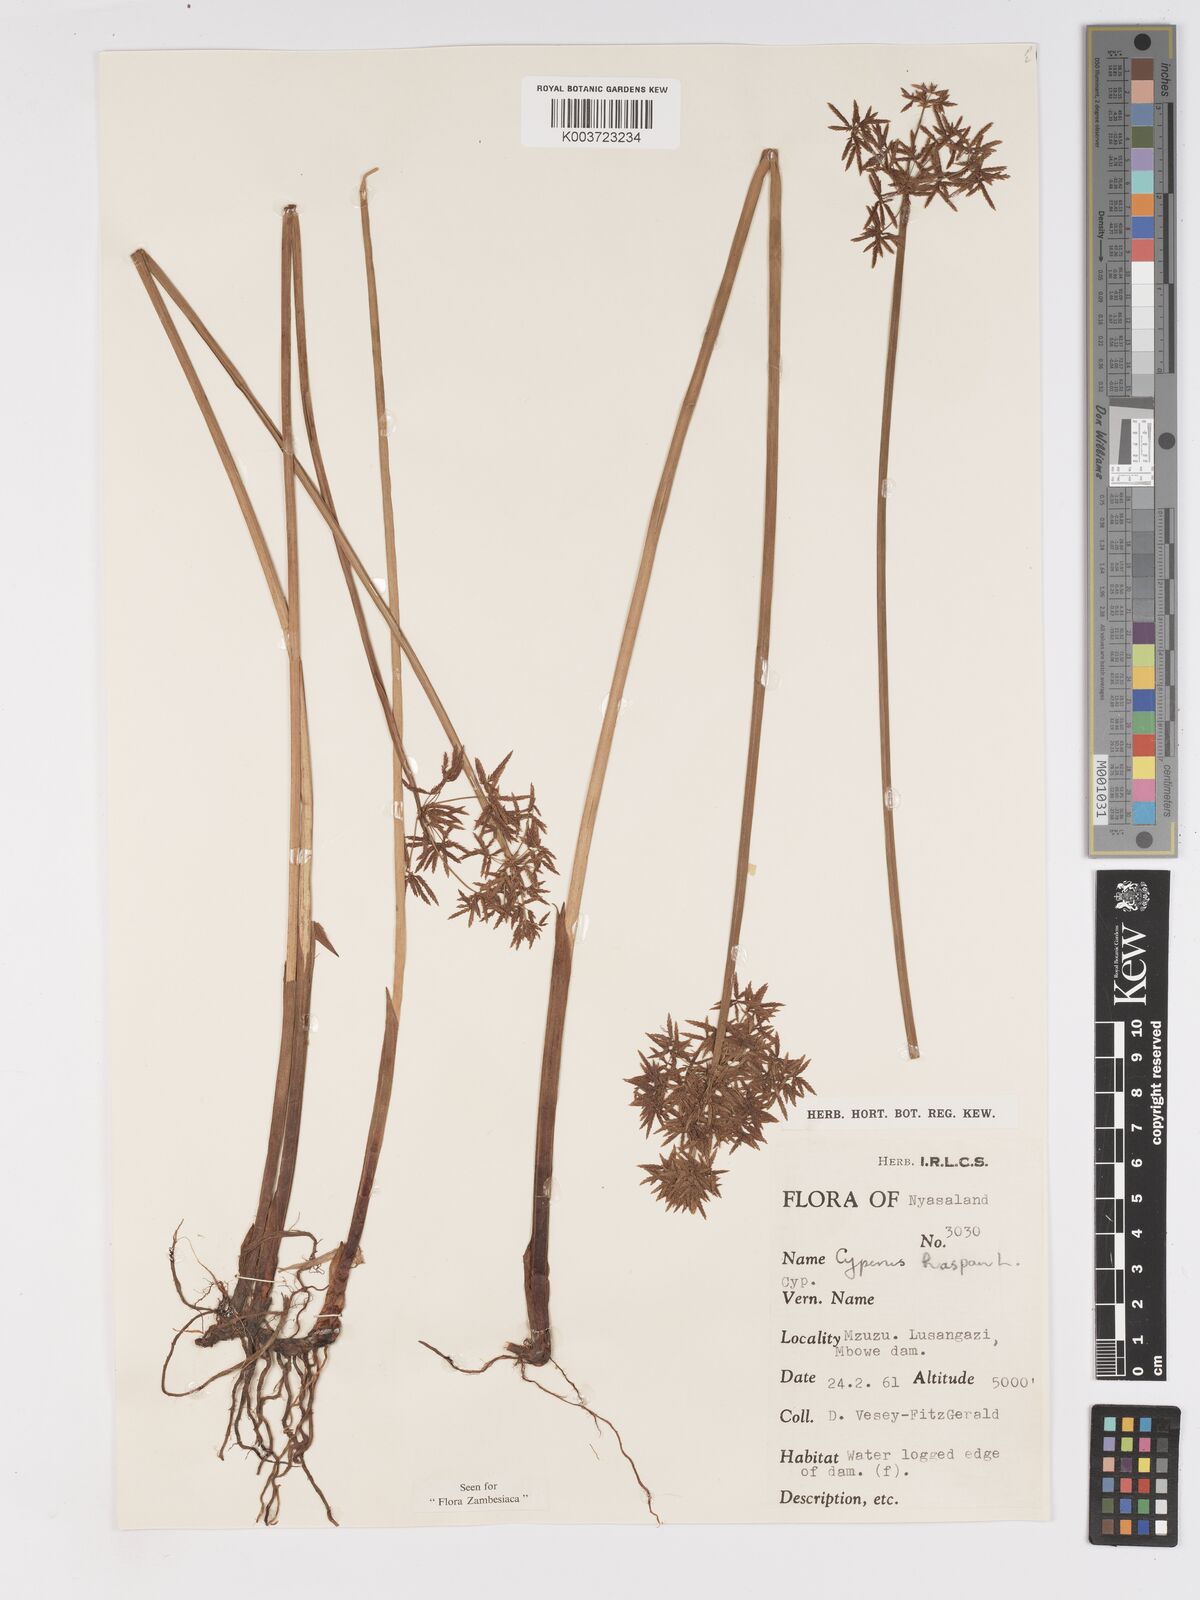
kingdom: Plantae
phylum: Tracheophyta
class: Liliopsida
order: Poales
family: Cyperaceae
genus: Cyperus
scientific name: Cyperus platycaulis
